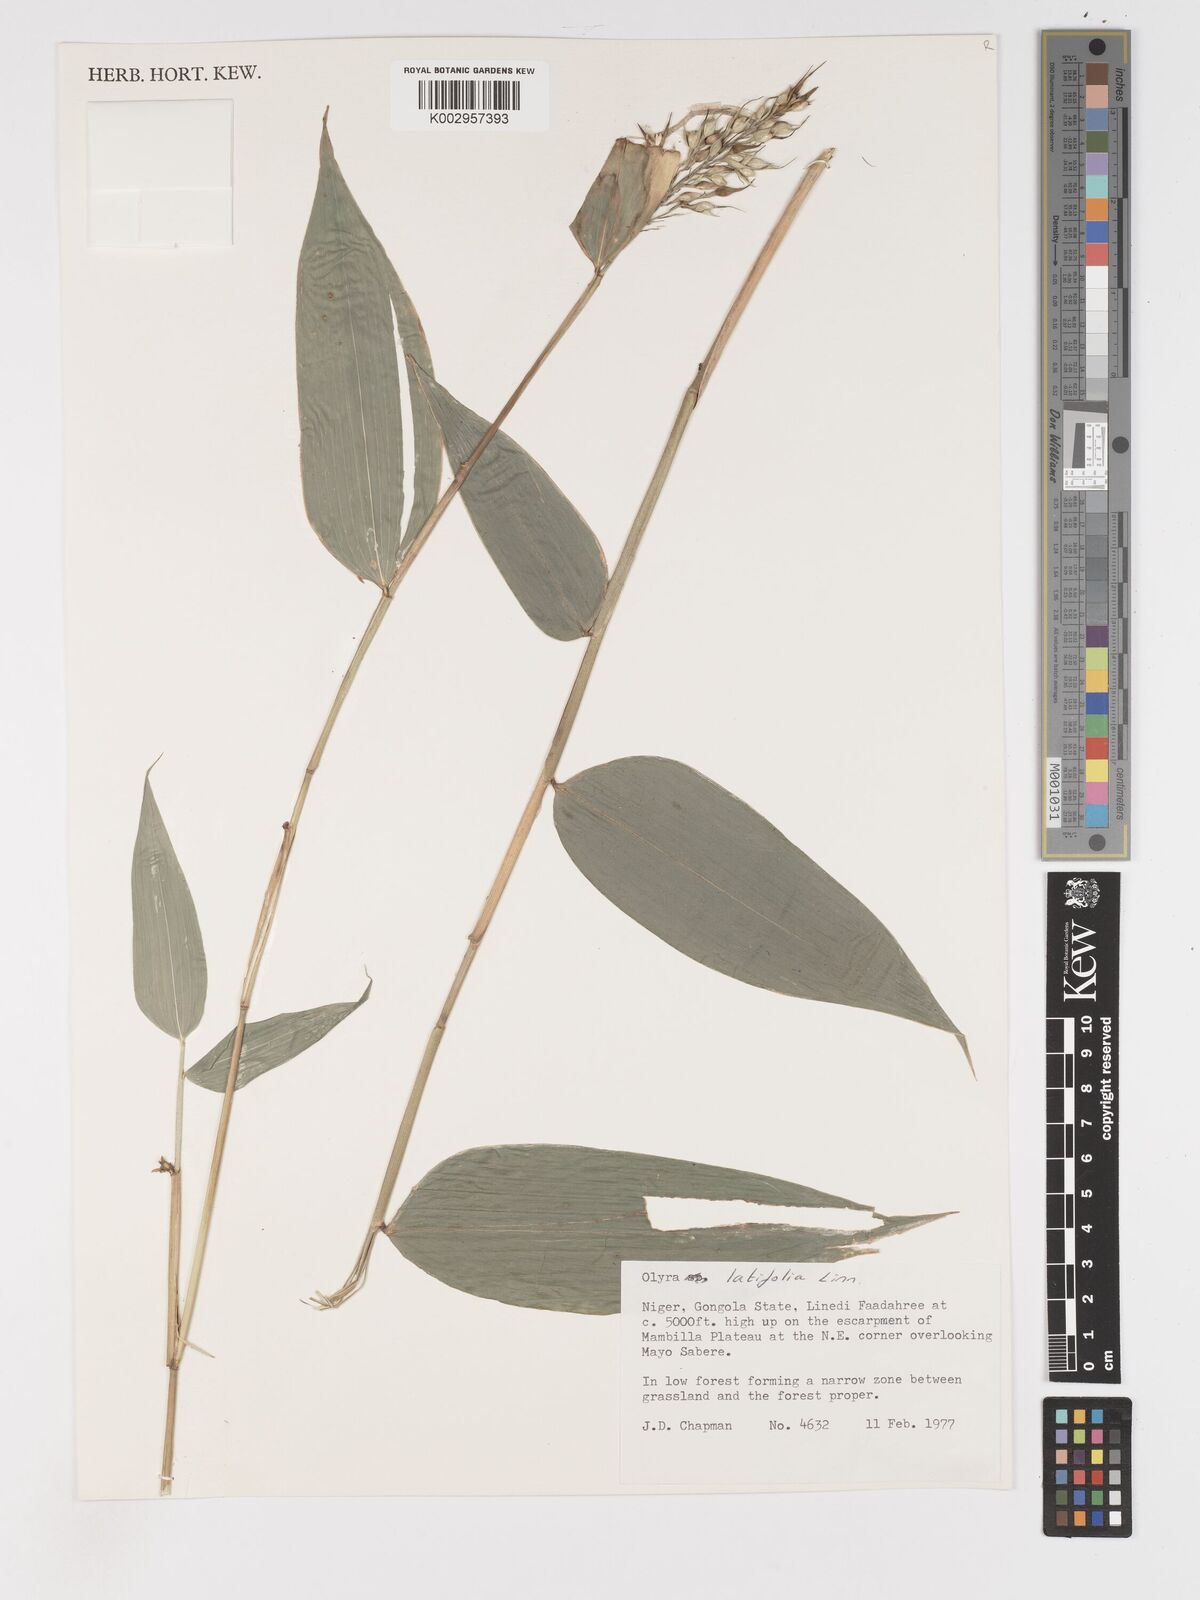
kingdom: Plantae
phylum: Tracheophyta
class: Liliopsida
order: Poales
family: Poaceae
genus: Olyra
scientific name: Olyra latifolia
